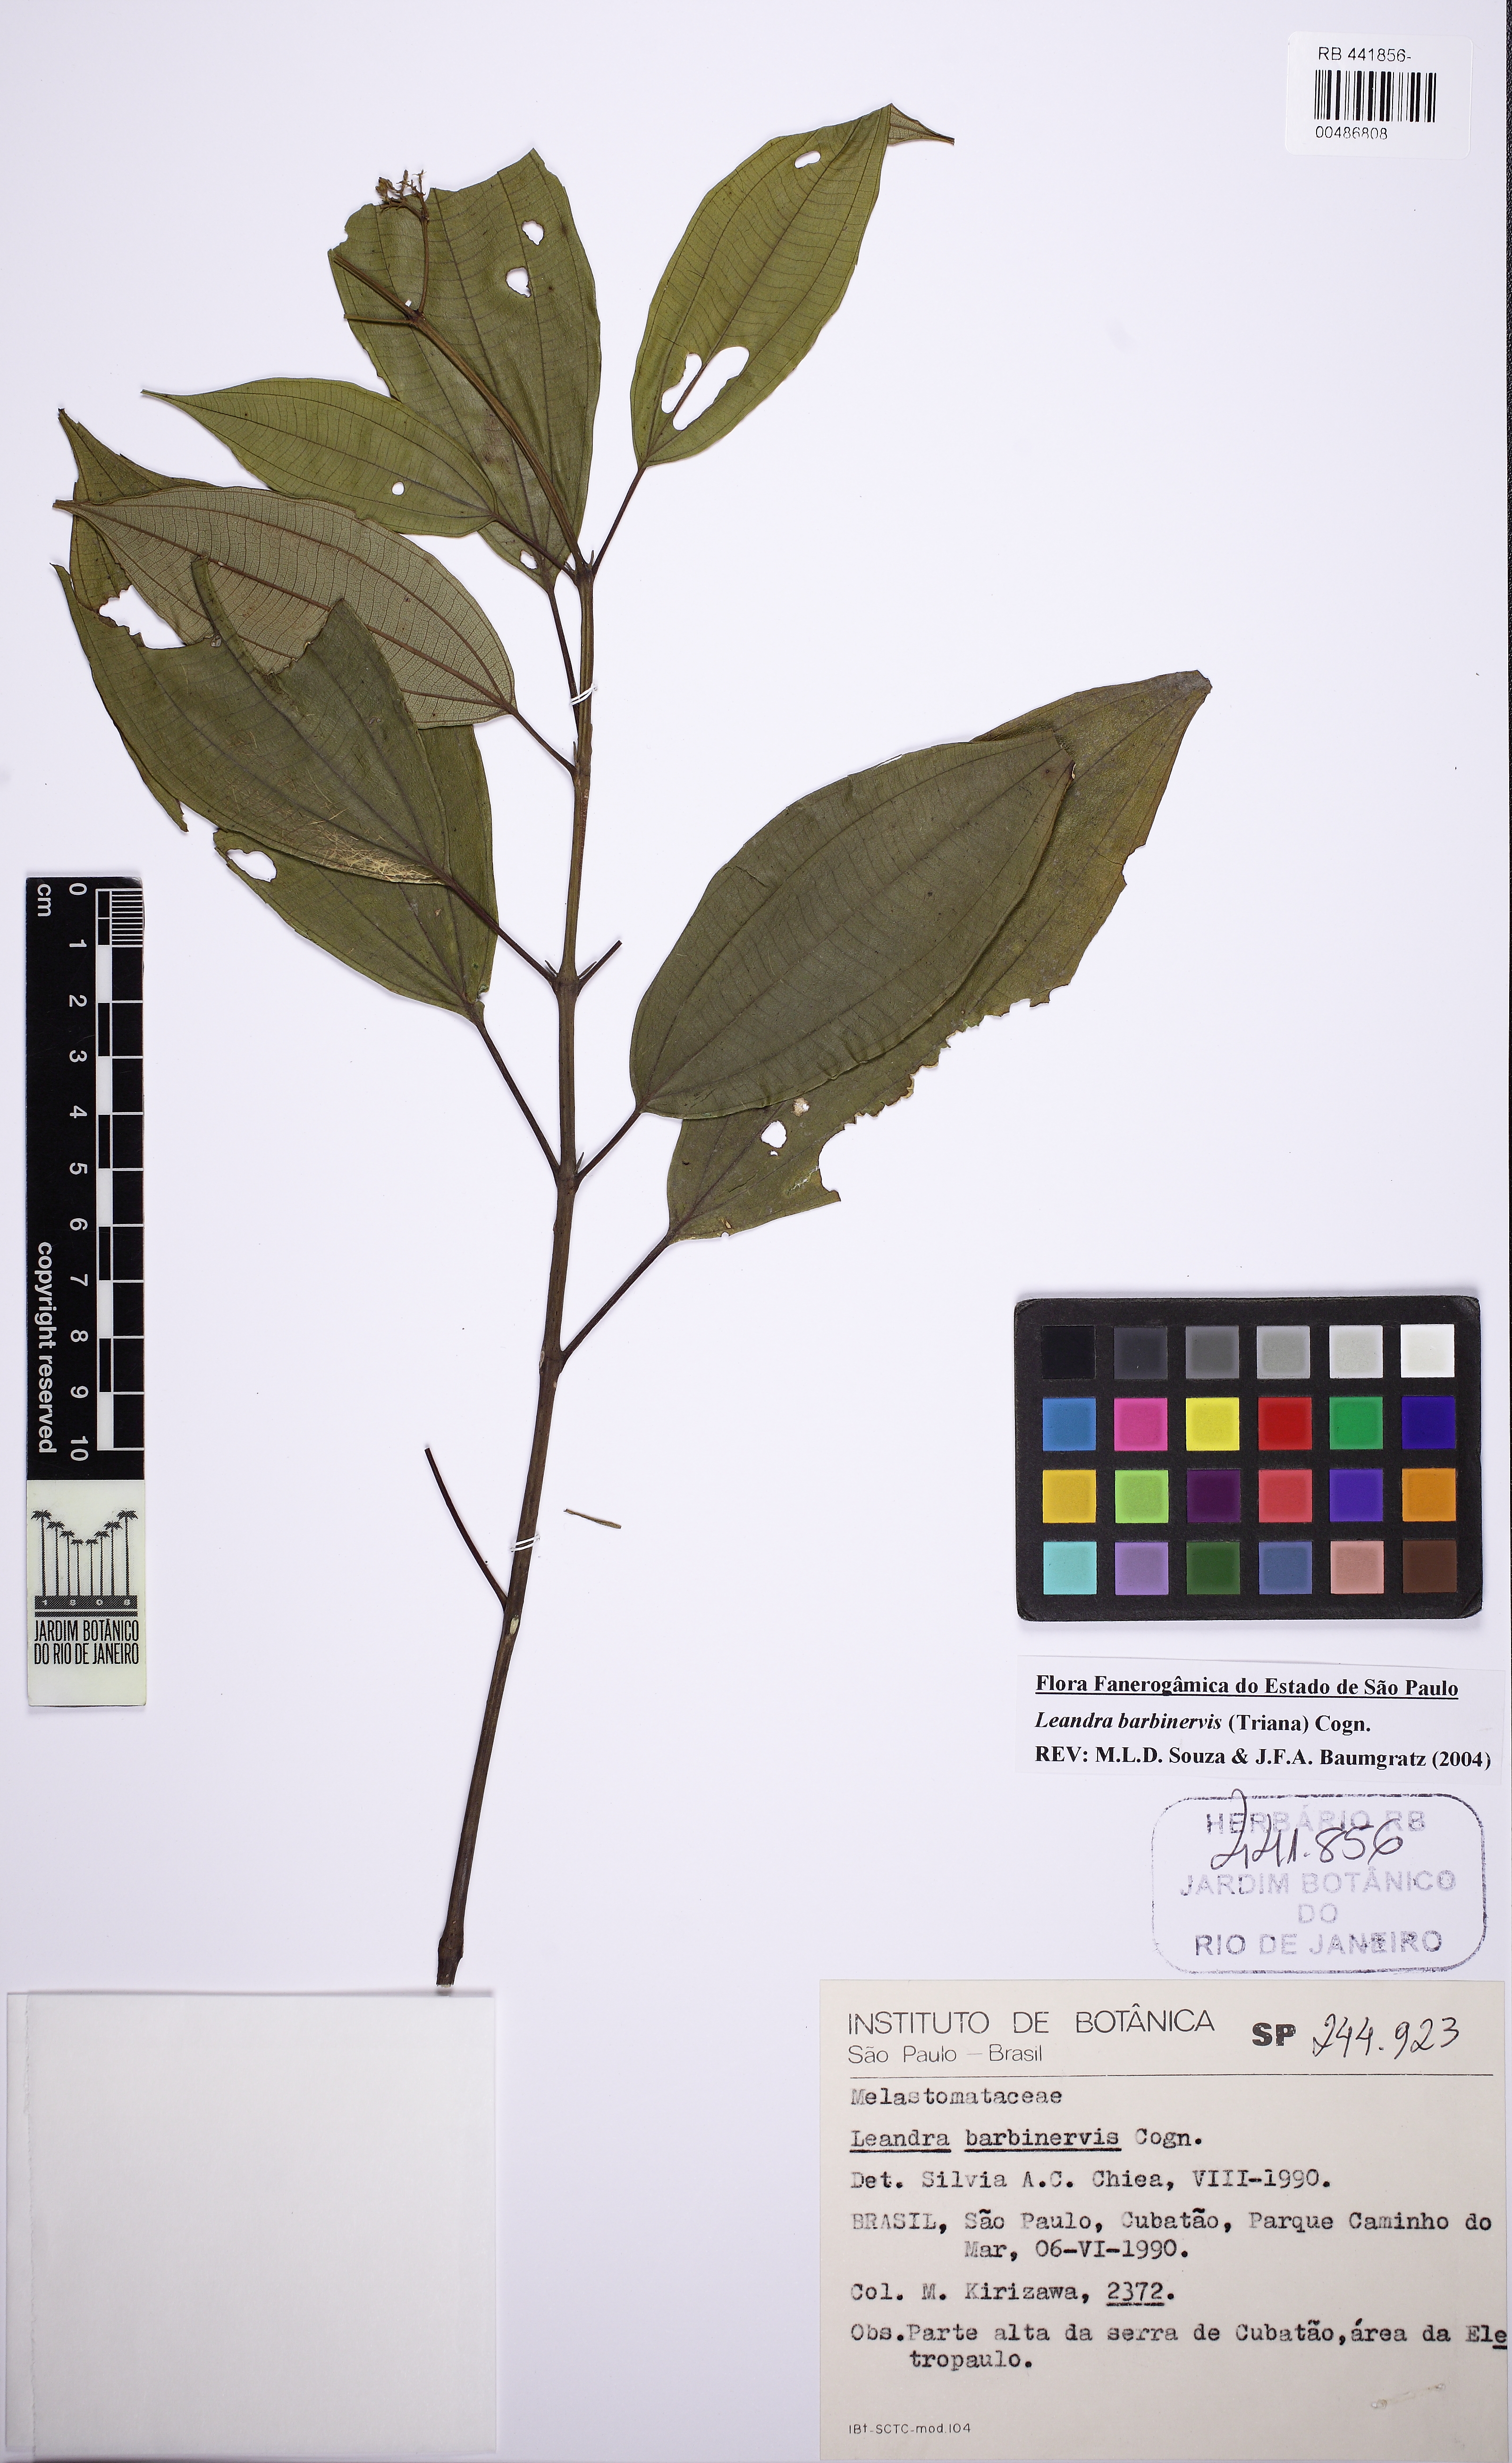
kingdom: Plantae
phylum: Tracheophyta
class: Magnoliopsida
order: Myrtales
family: Melastomataceae
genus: Miconia
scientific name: Miconia trauninensis
